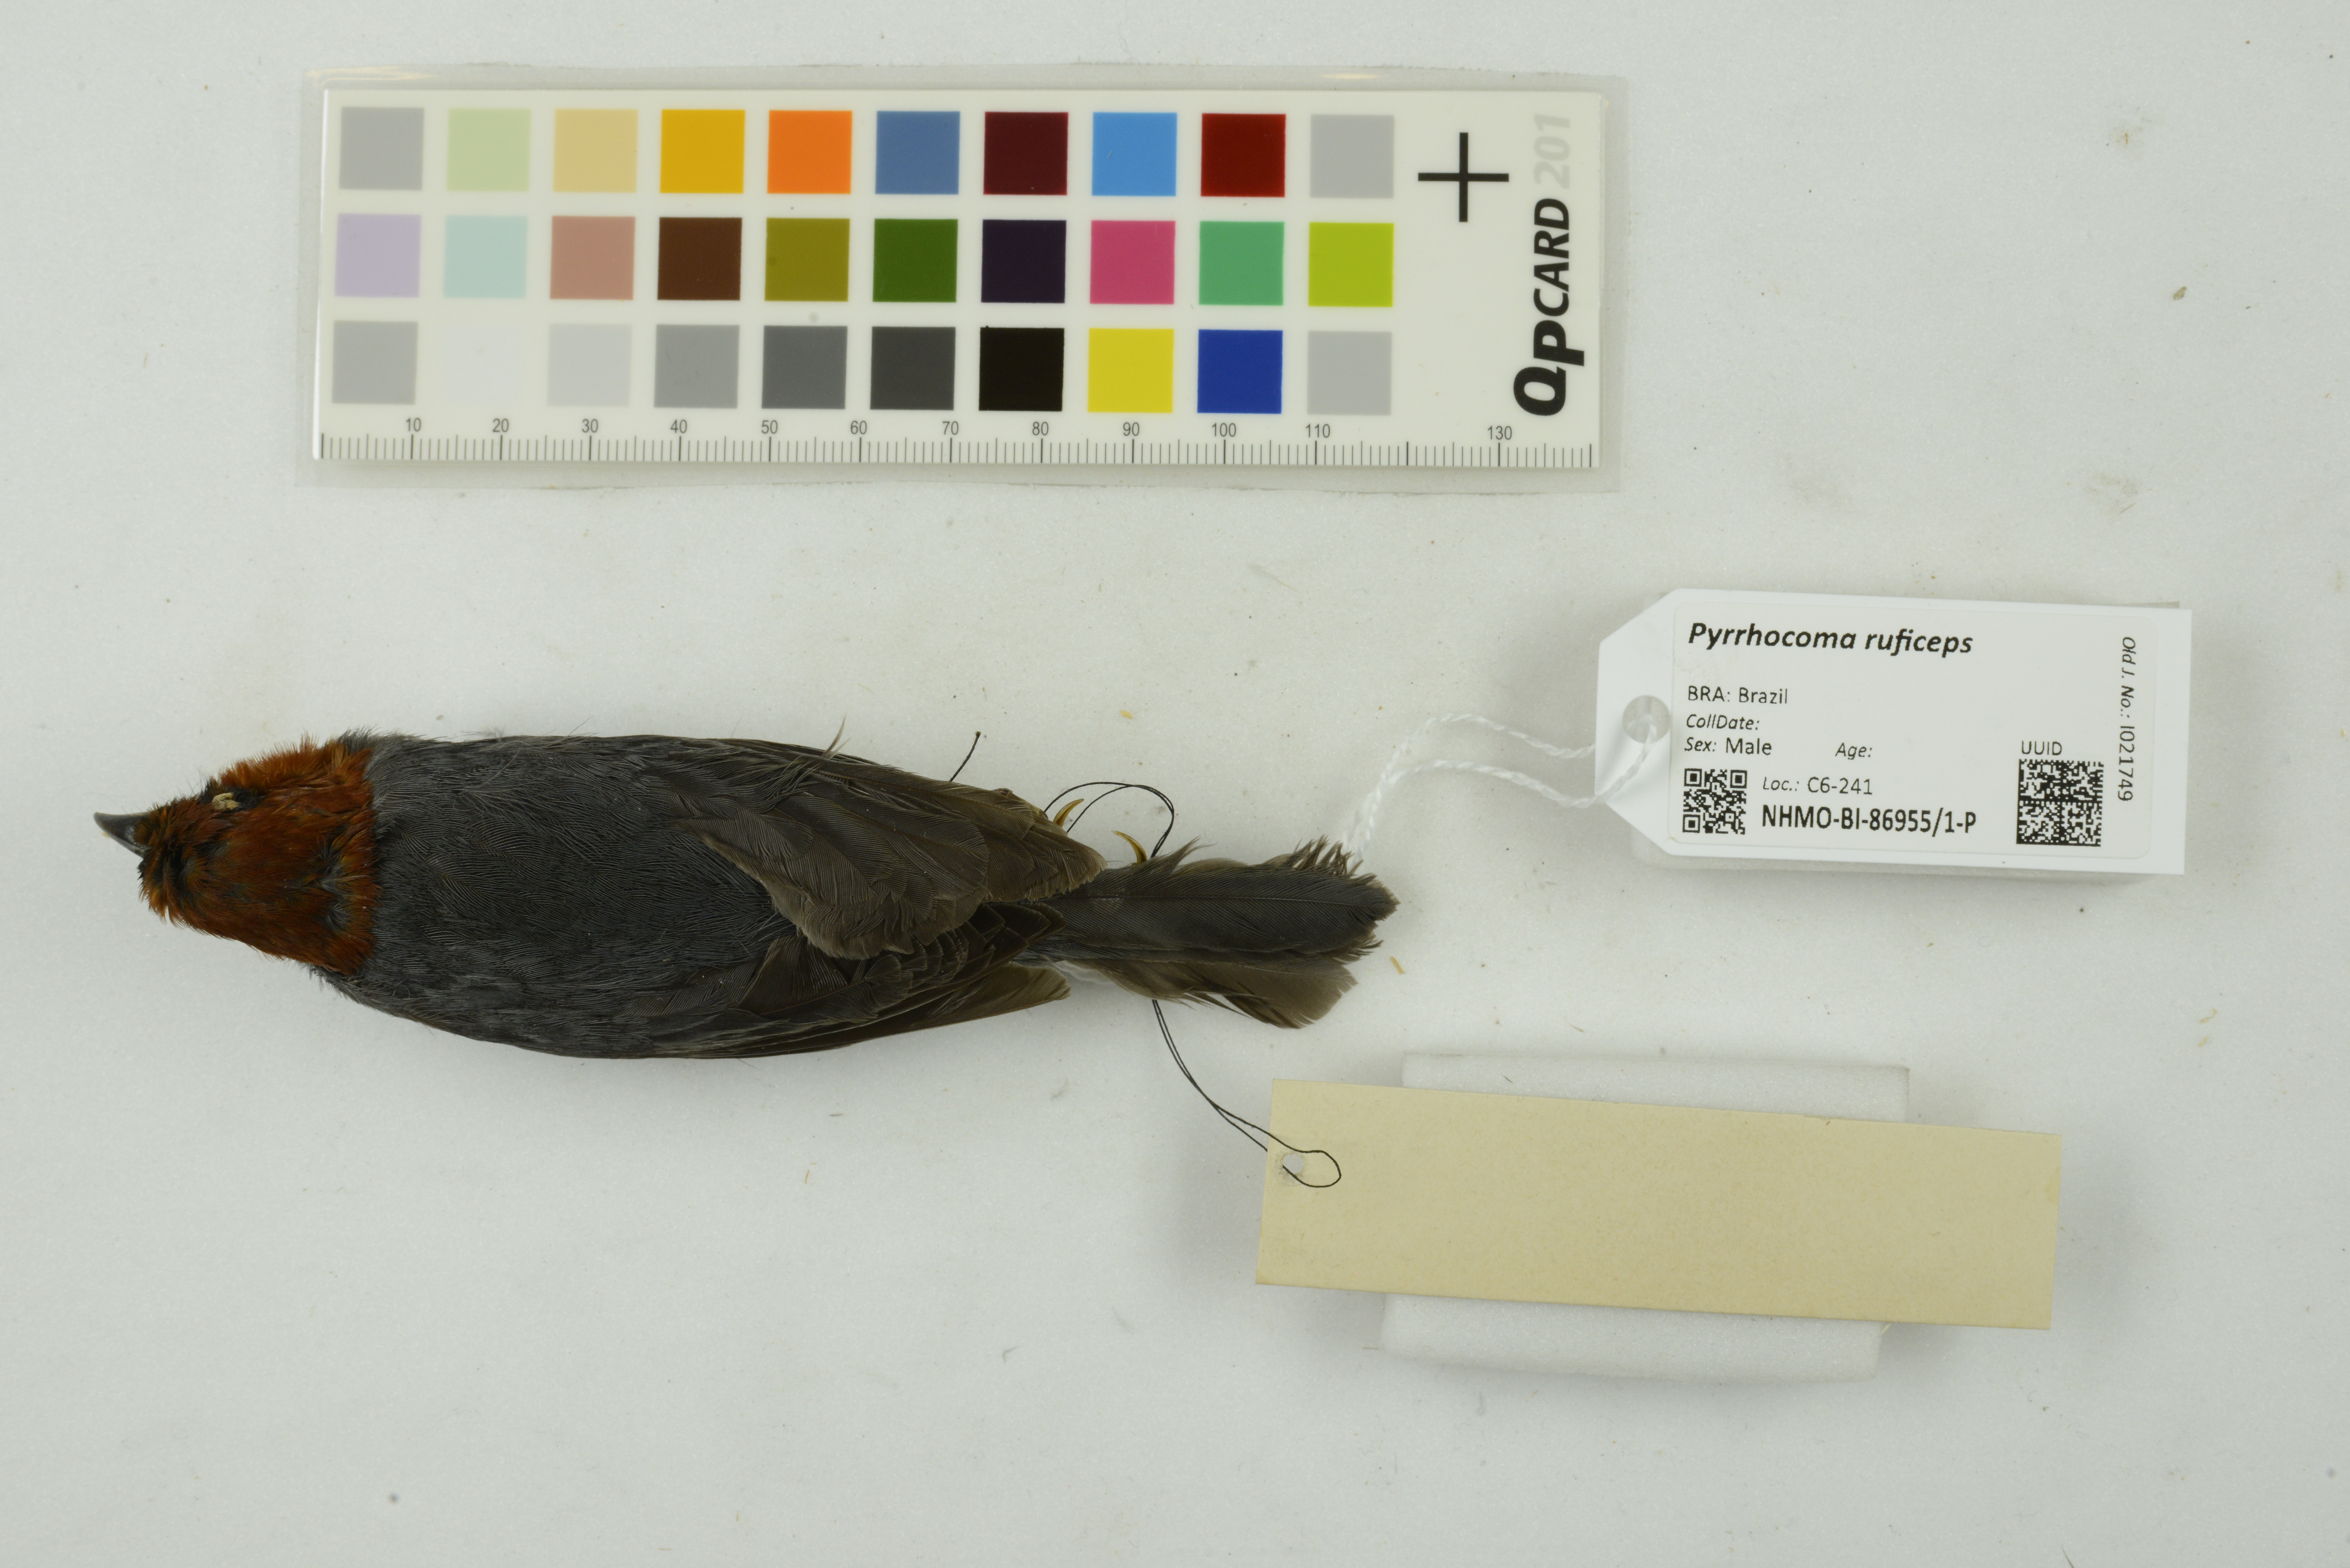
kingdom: Animalia
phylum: Chordata
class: Aves
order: Passeriformes
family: Thraupidae
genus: Thlypopsis
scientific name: Thlypopsis pyrrhocoma
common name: Chestnut-headed tanager
